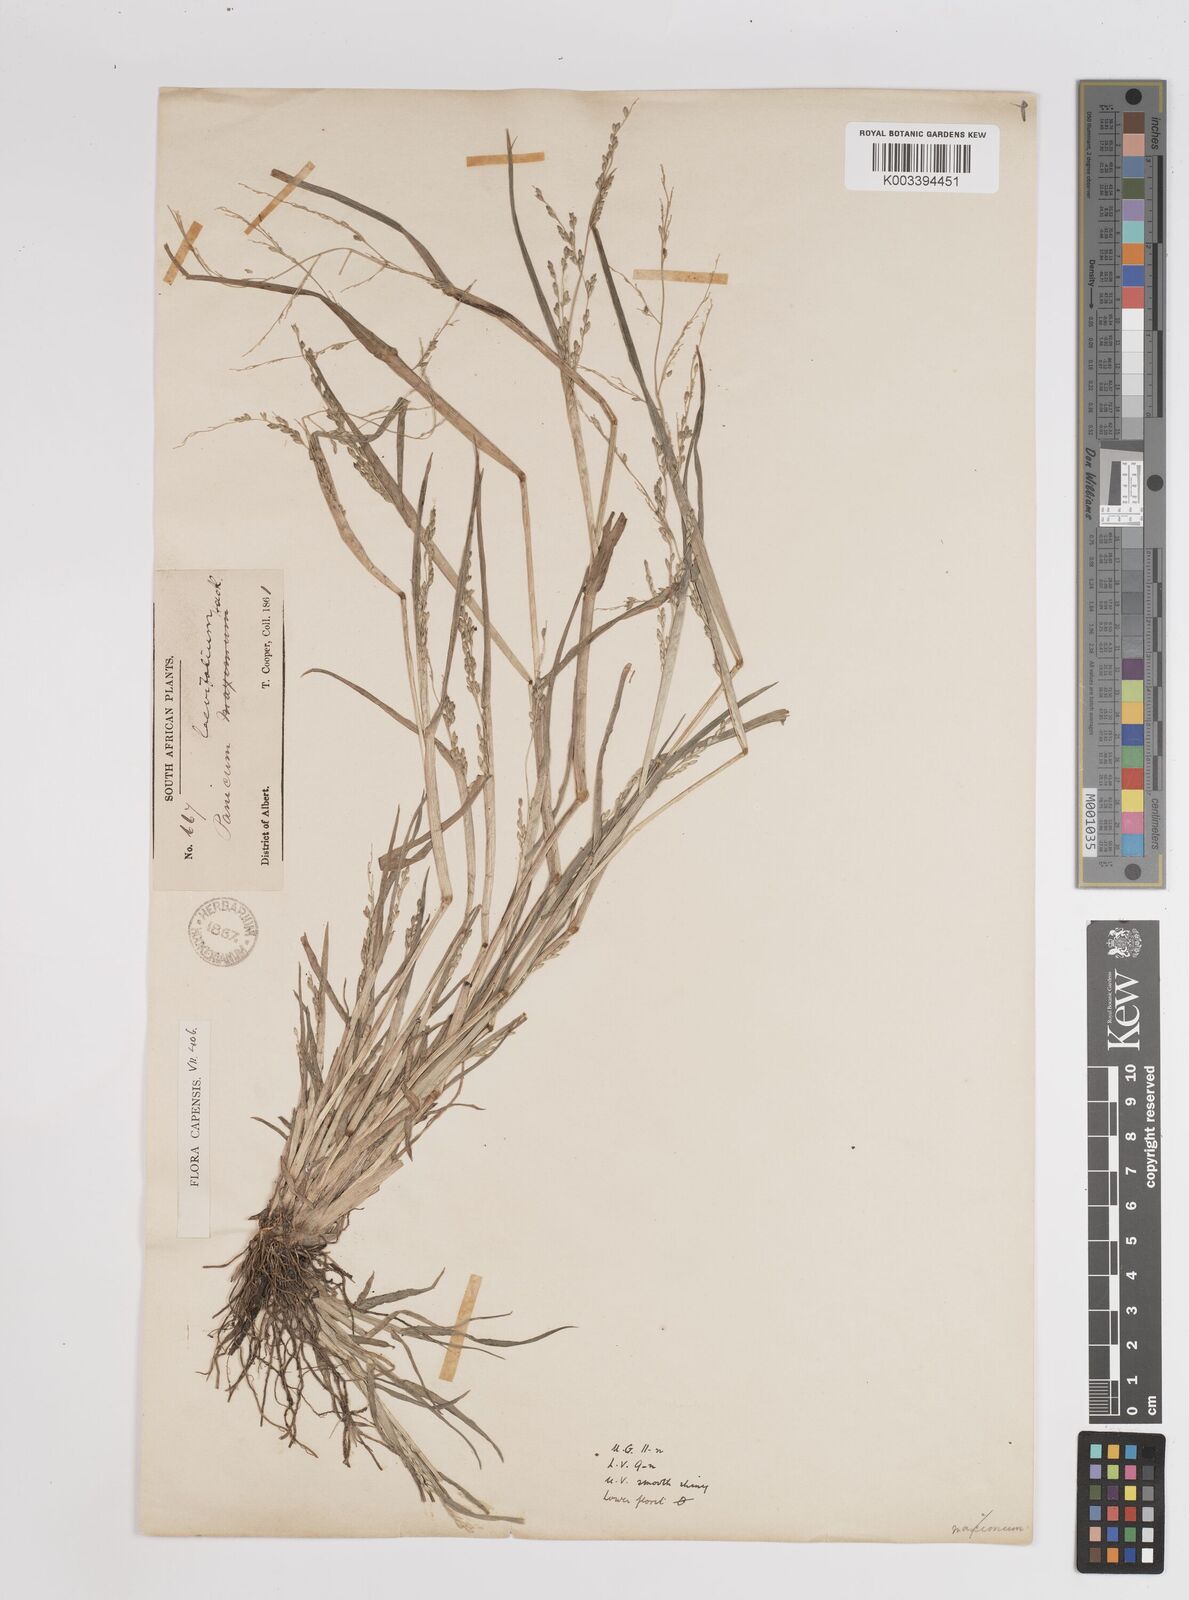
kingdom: Plantae
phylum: Tracheophyta
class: Liliopsida
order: Poales
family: Poaceae
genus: Panicum
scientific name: Panicum
